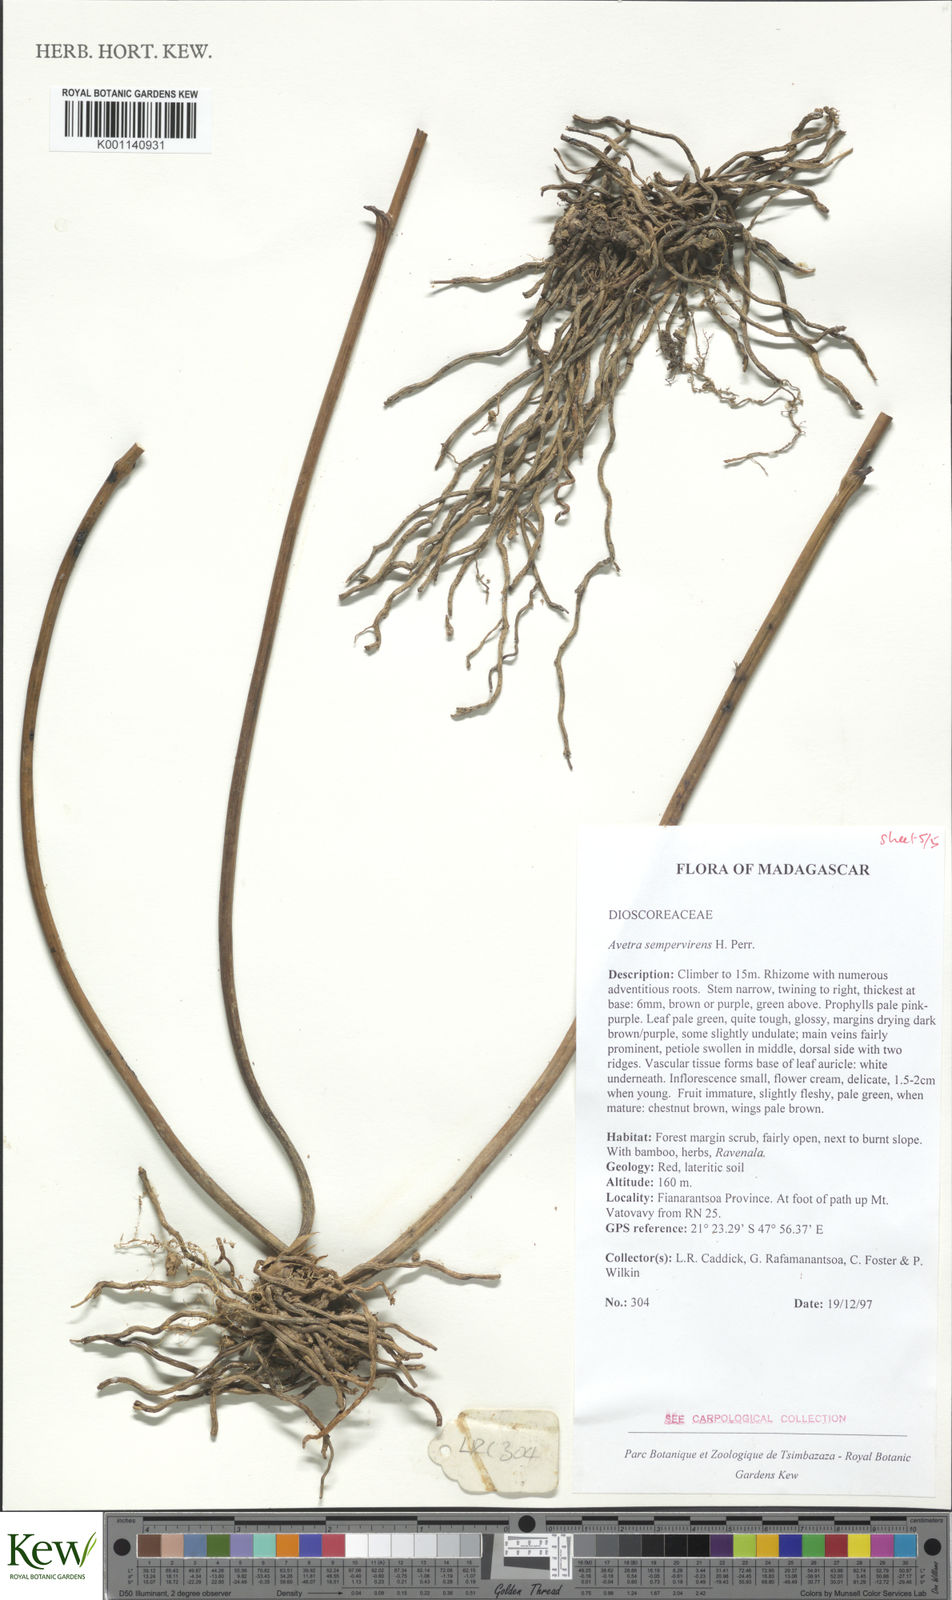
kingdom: Plantae
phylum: Tracheophyta
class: Liliopsida
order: Dioscoreales
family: Dioscoreaceae
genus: Trichopus
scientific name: Trichopus sempervirens
